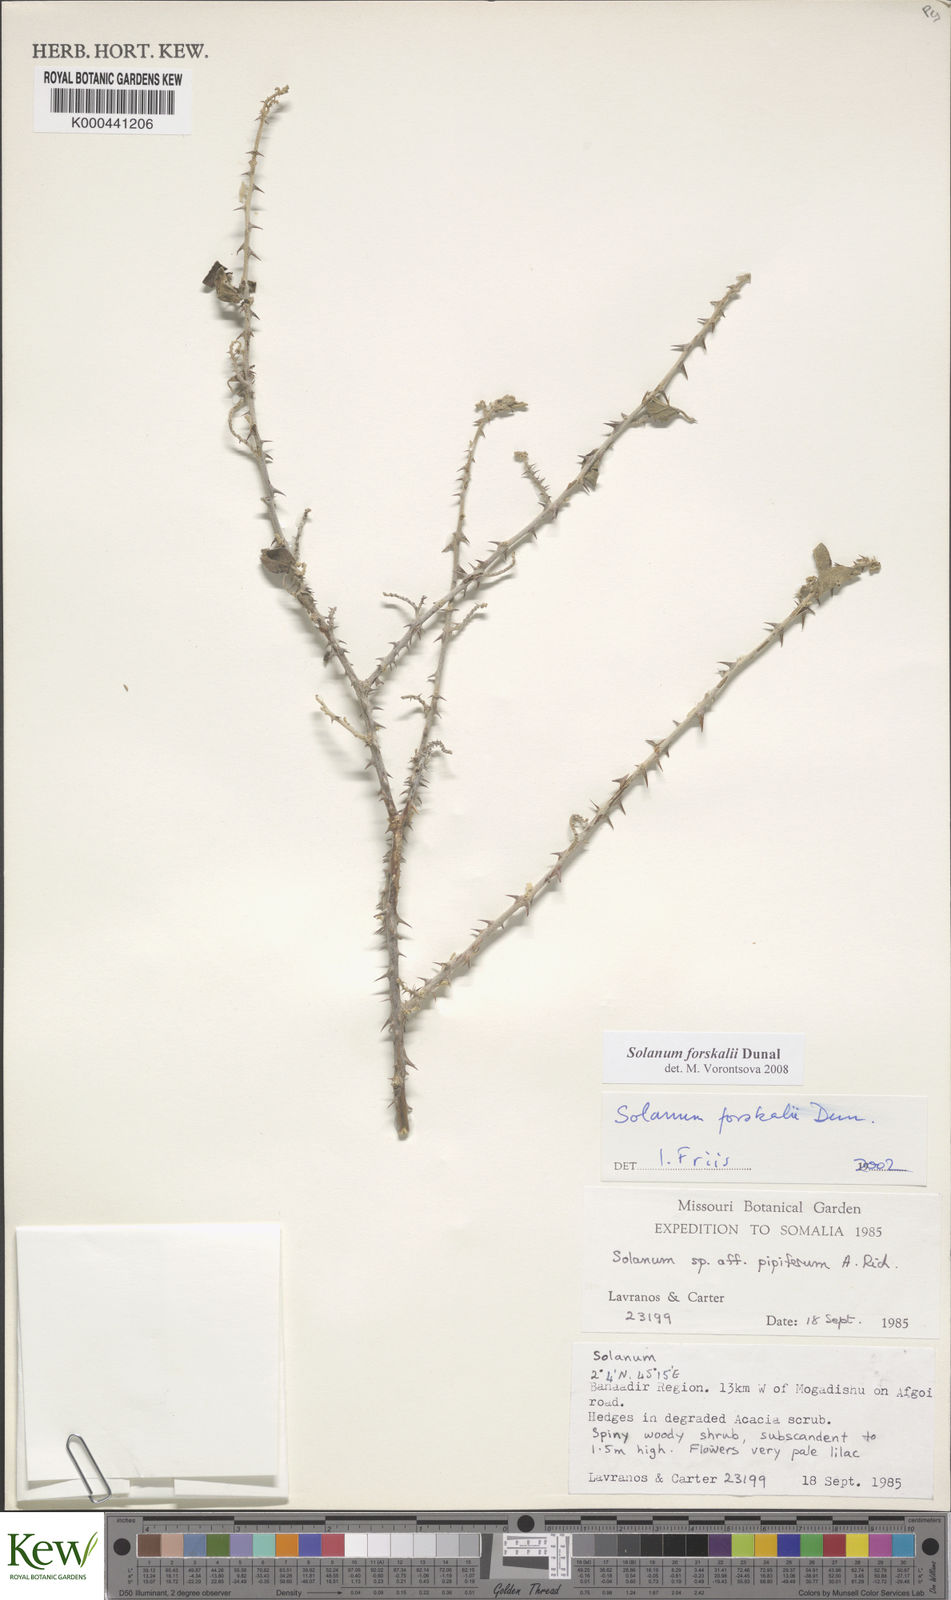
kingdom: Plantae
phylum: Tracheophyta
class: Magnoliopsida
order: Solanales
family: Solanaceae
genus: Solanum
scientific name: Solanum
